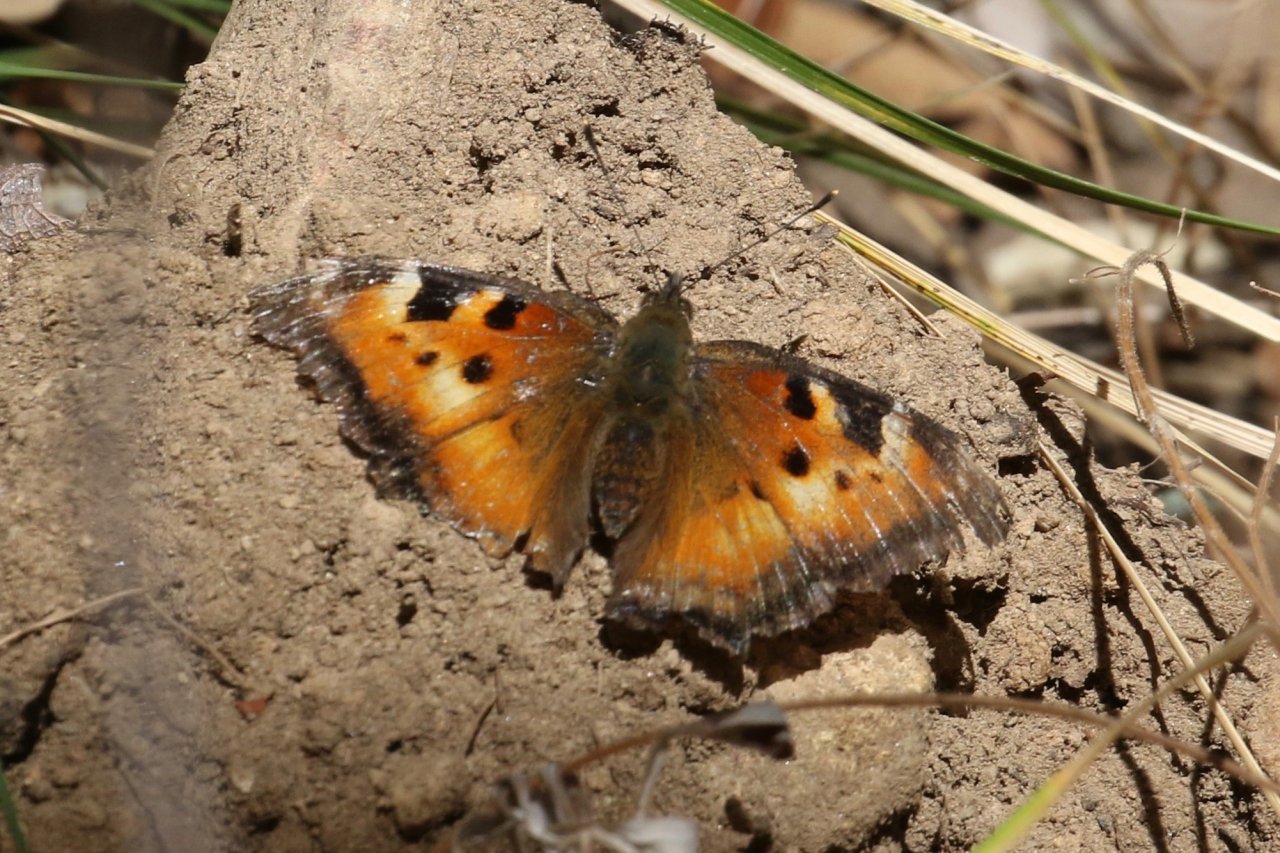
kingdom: Animalia
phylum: Arthropoda
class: Insecta
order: Lepidoptera
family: Nymphalidae
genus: Nymphalis
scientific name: Nymphalis californica
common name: California Tortoiseshell
